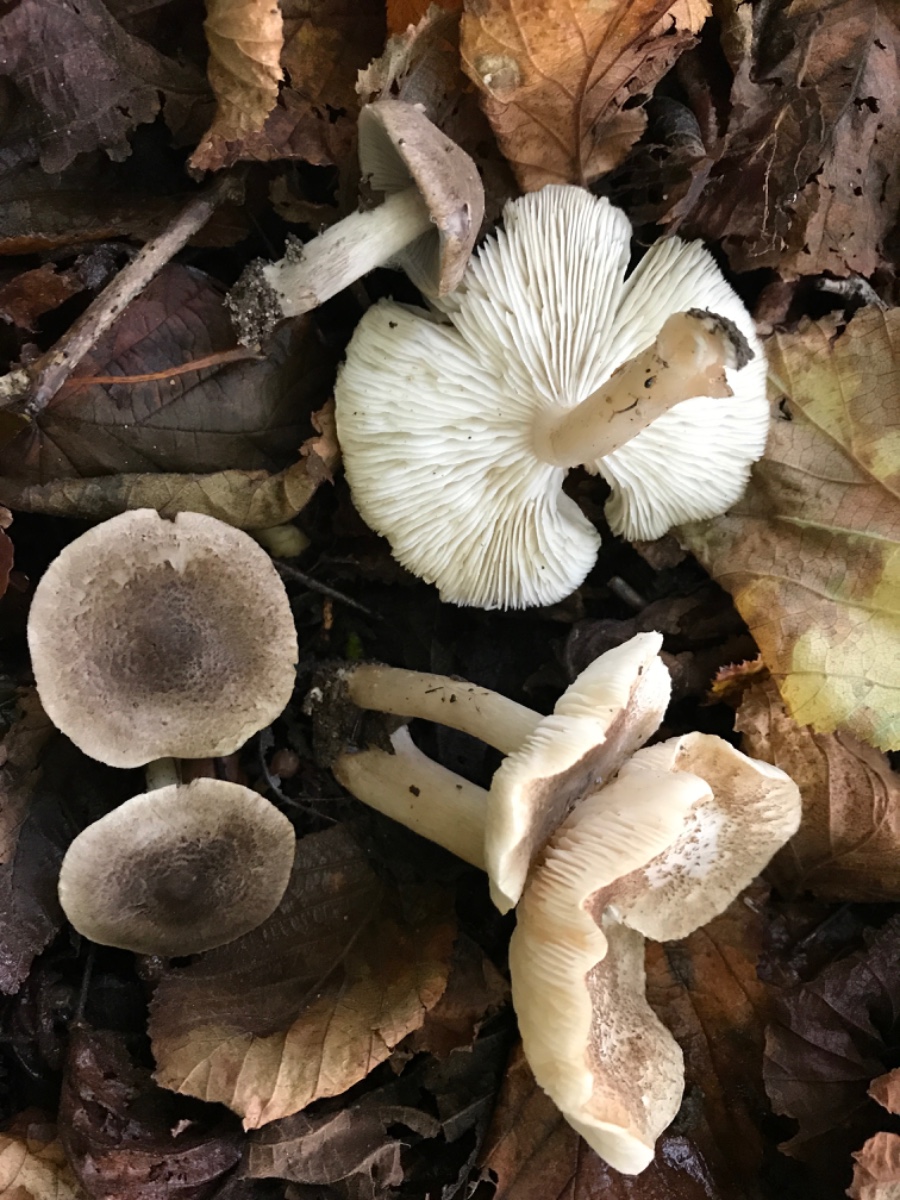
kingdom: Fungi
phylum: Basidiomycota
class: Agaricomycetes
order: Agaricales
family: Tricholomataceae
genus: Tricholoma
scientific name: Tricholoma scalpturatum
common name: gulplettet ridderhat
